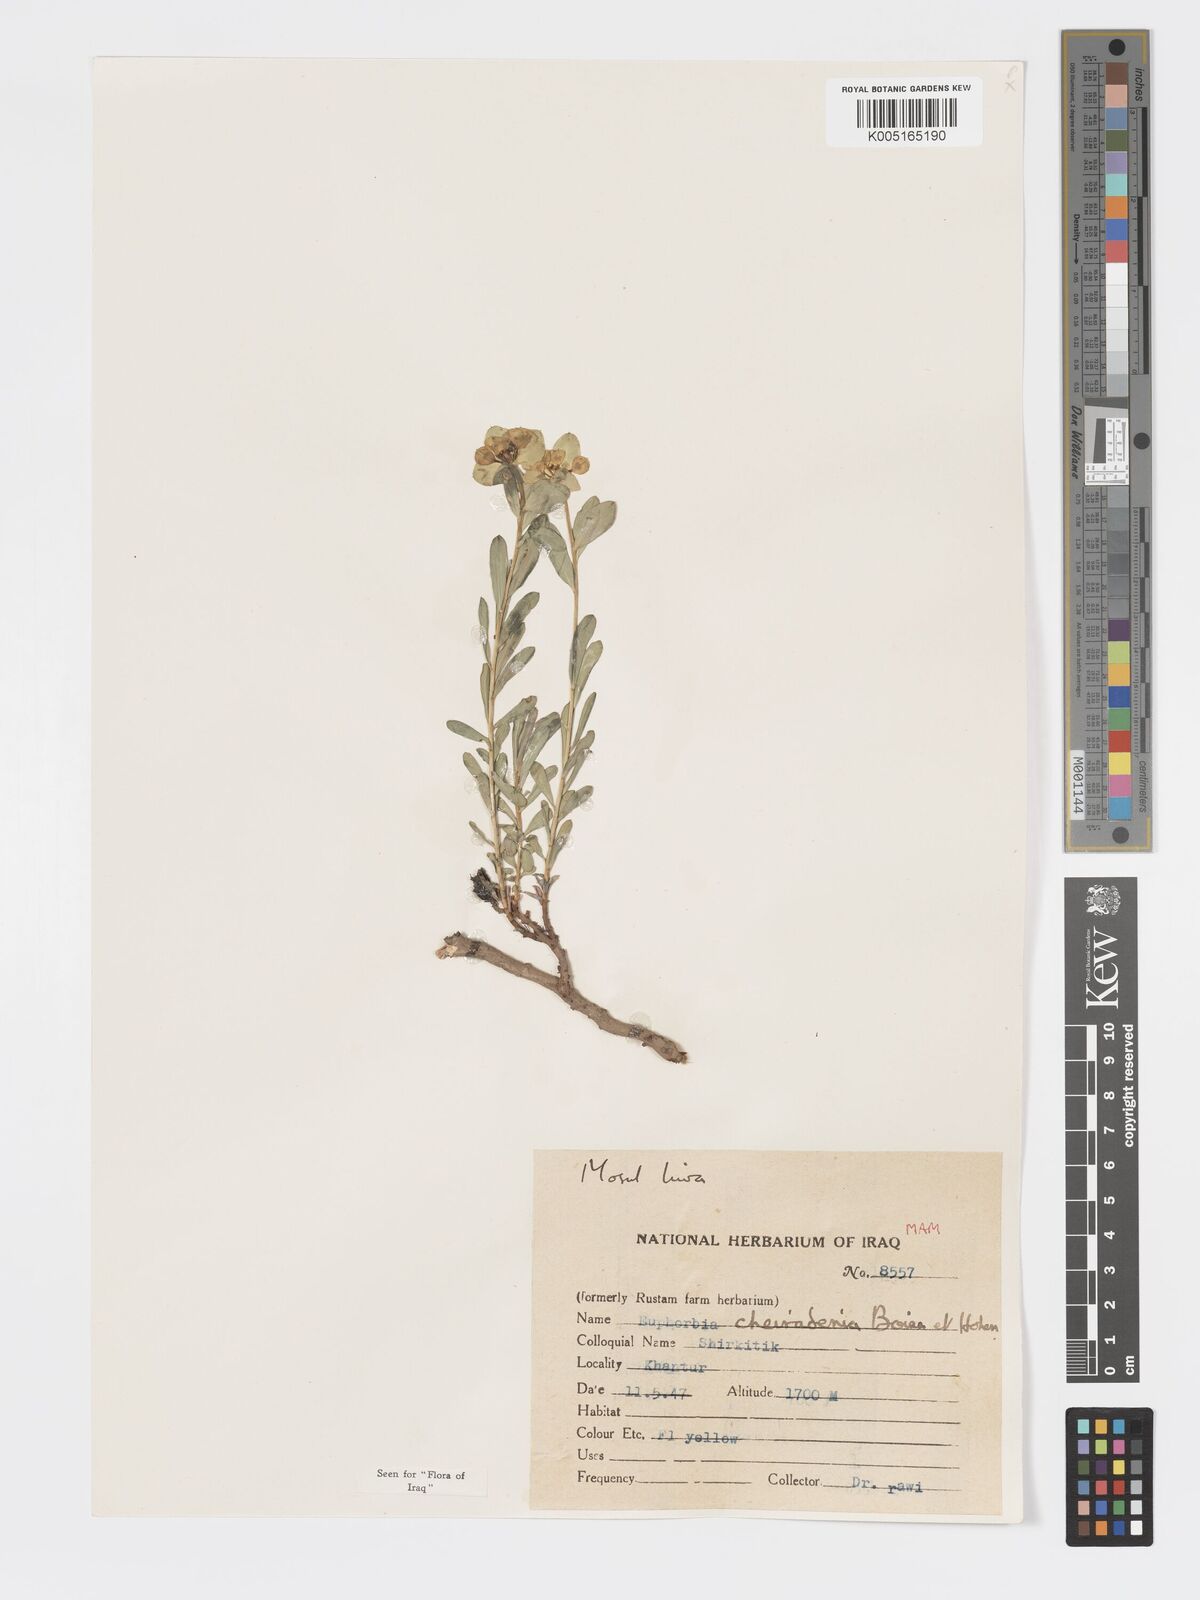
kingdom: Plantae
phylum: Tracheophyta
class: Magnoliopsida
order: Malpighiales
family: Euphorbiaceae
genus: Euphorbia
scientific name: Euphorbia cheiradenia
